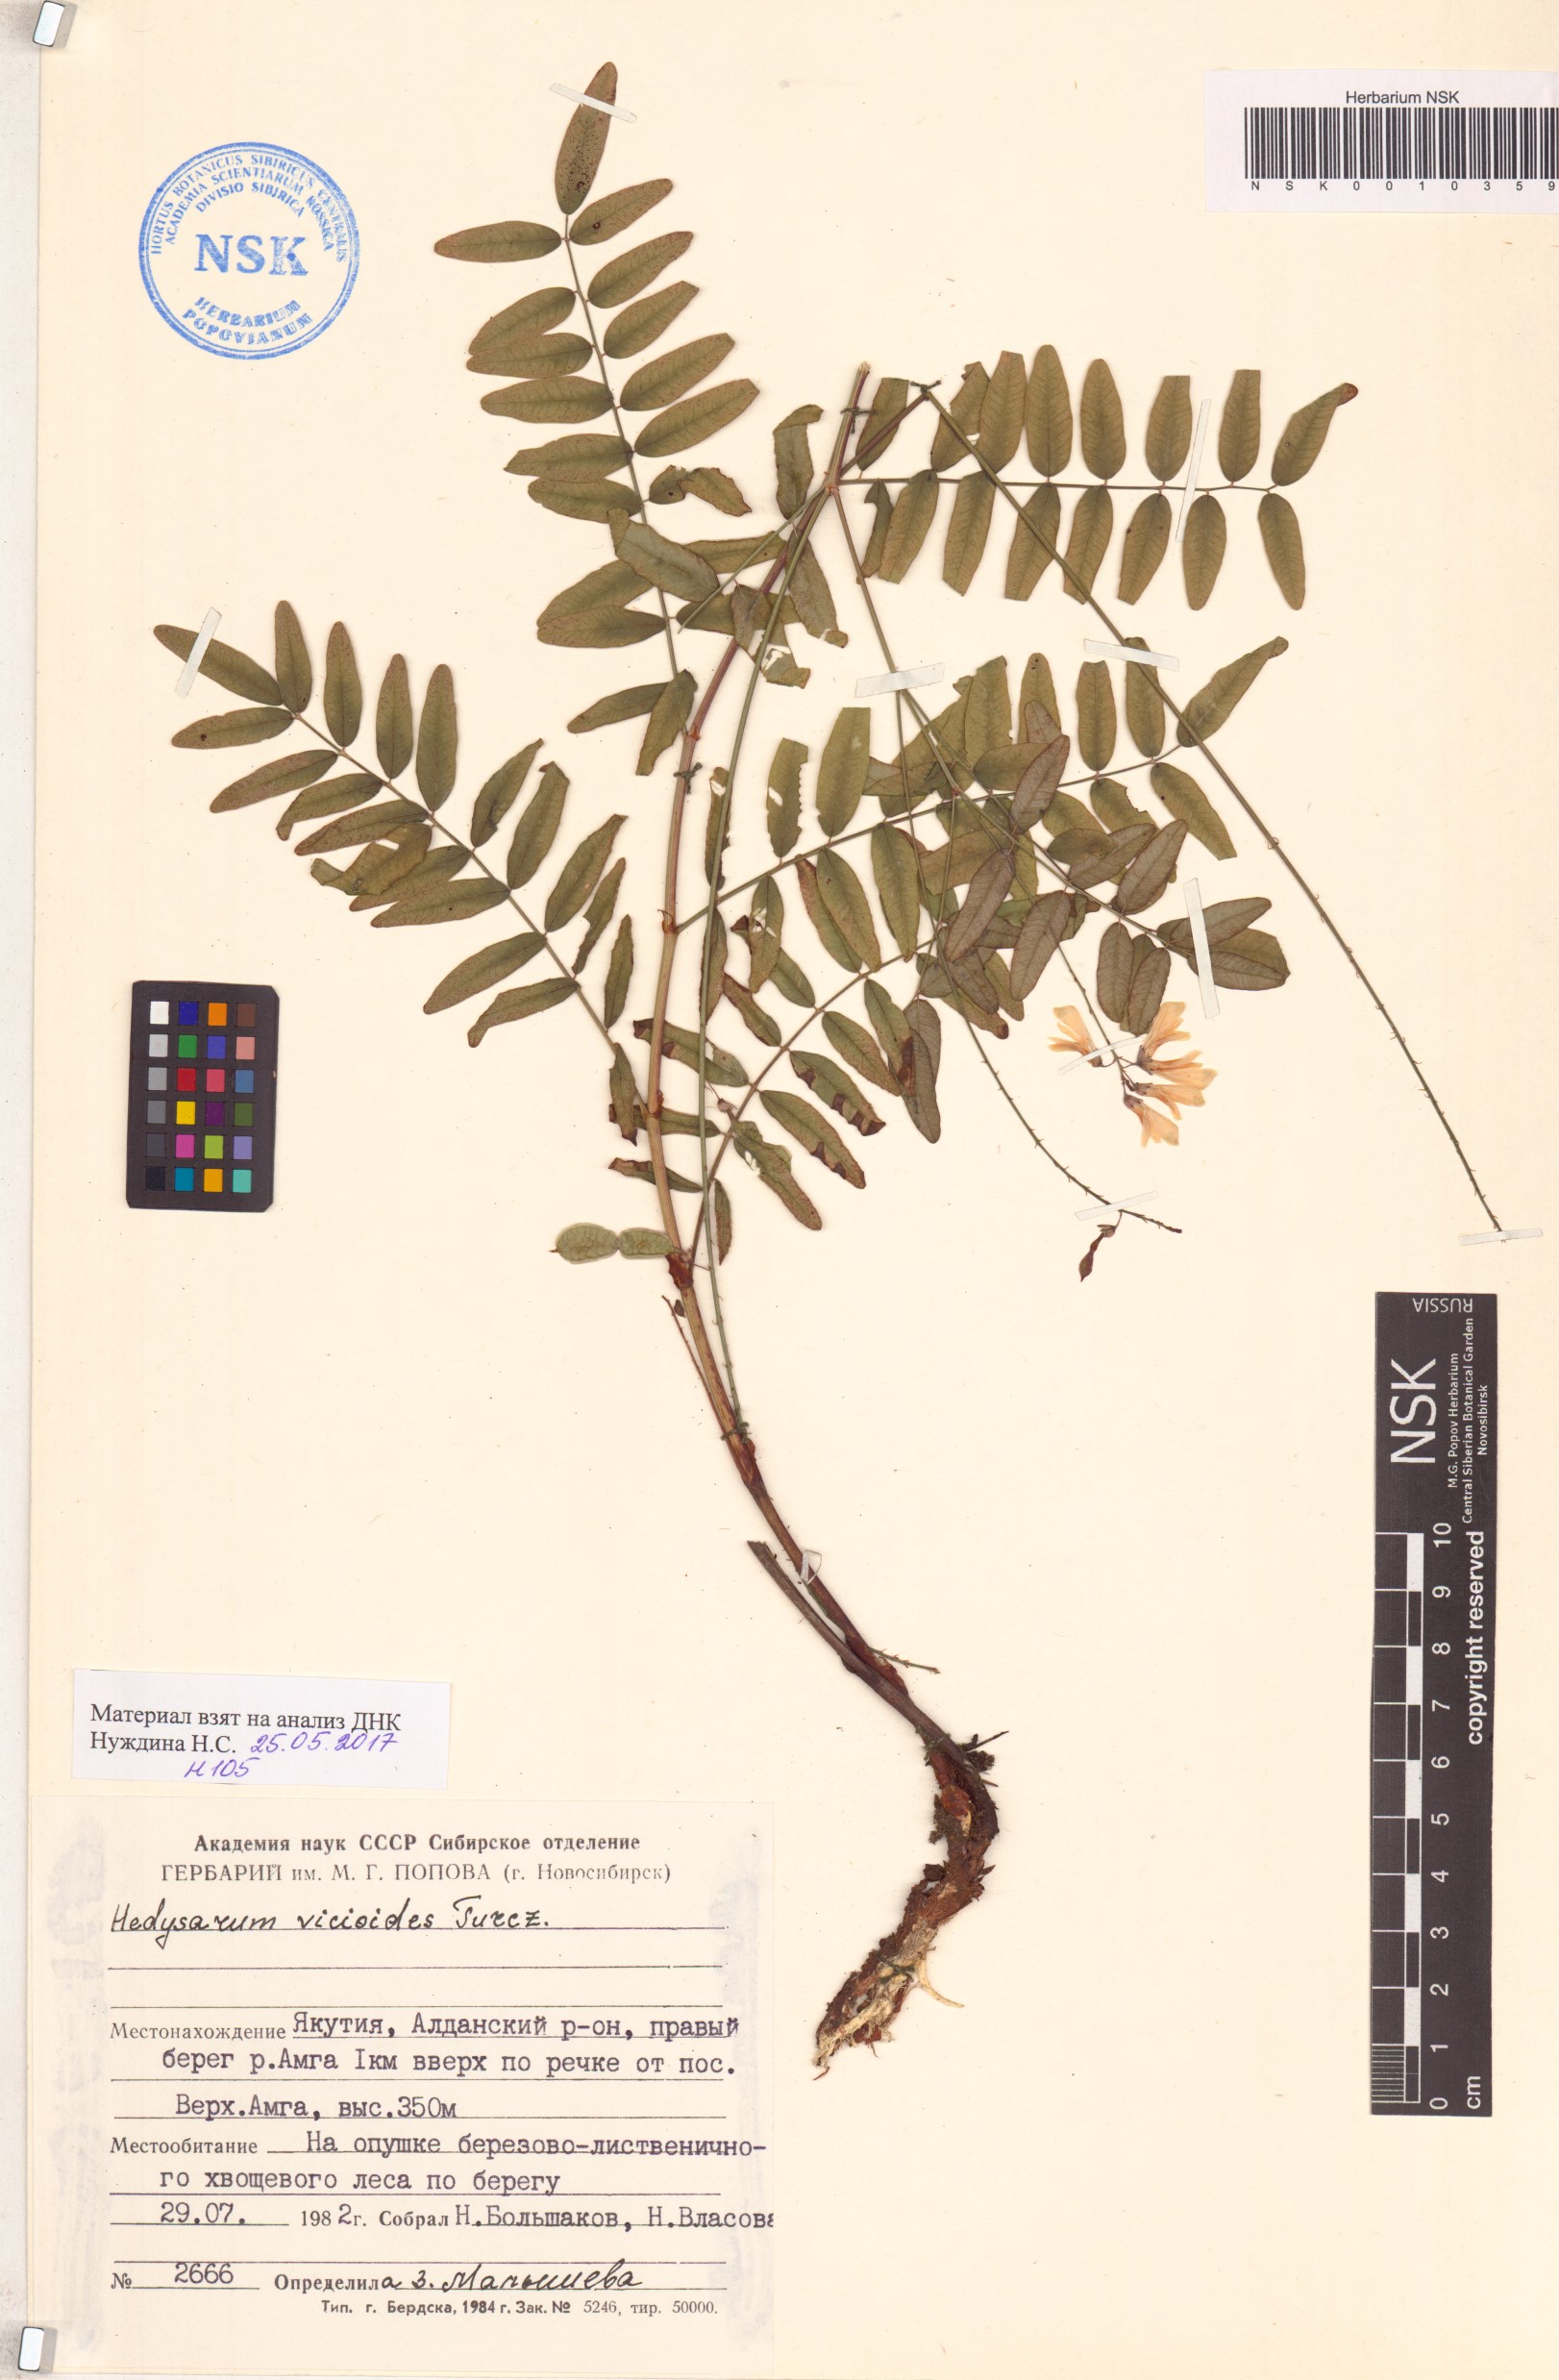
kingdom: Plantae
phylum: Tracheophyta
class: Magnoliopsida
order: Fabales
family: Fabaceae
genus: Hedysarum
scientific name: Hedysarum vicioides
